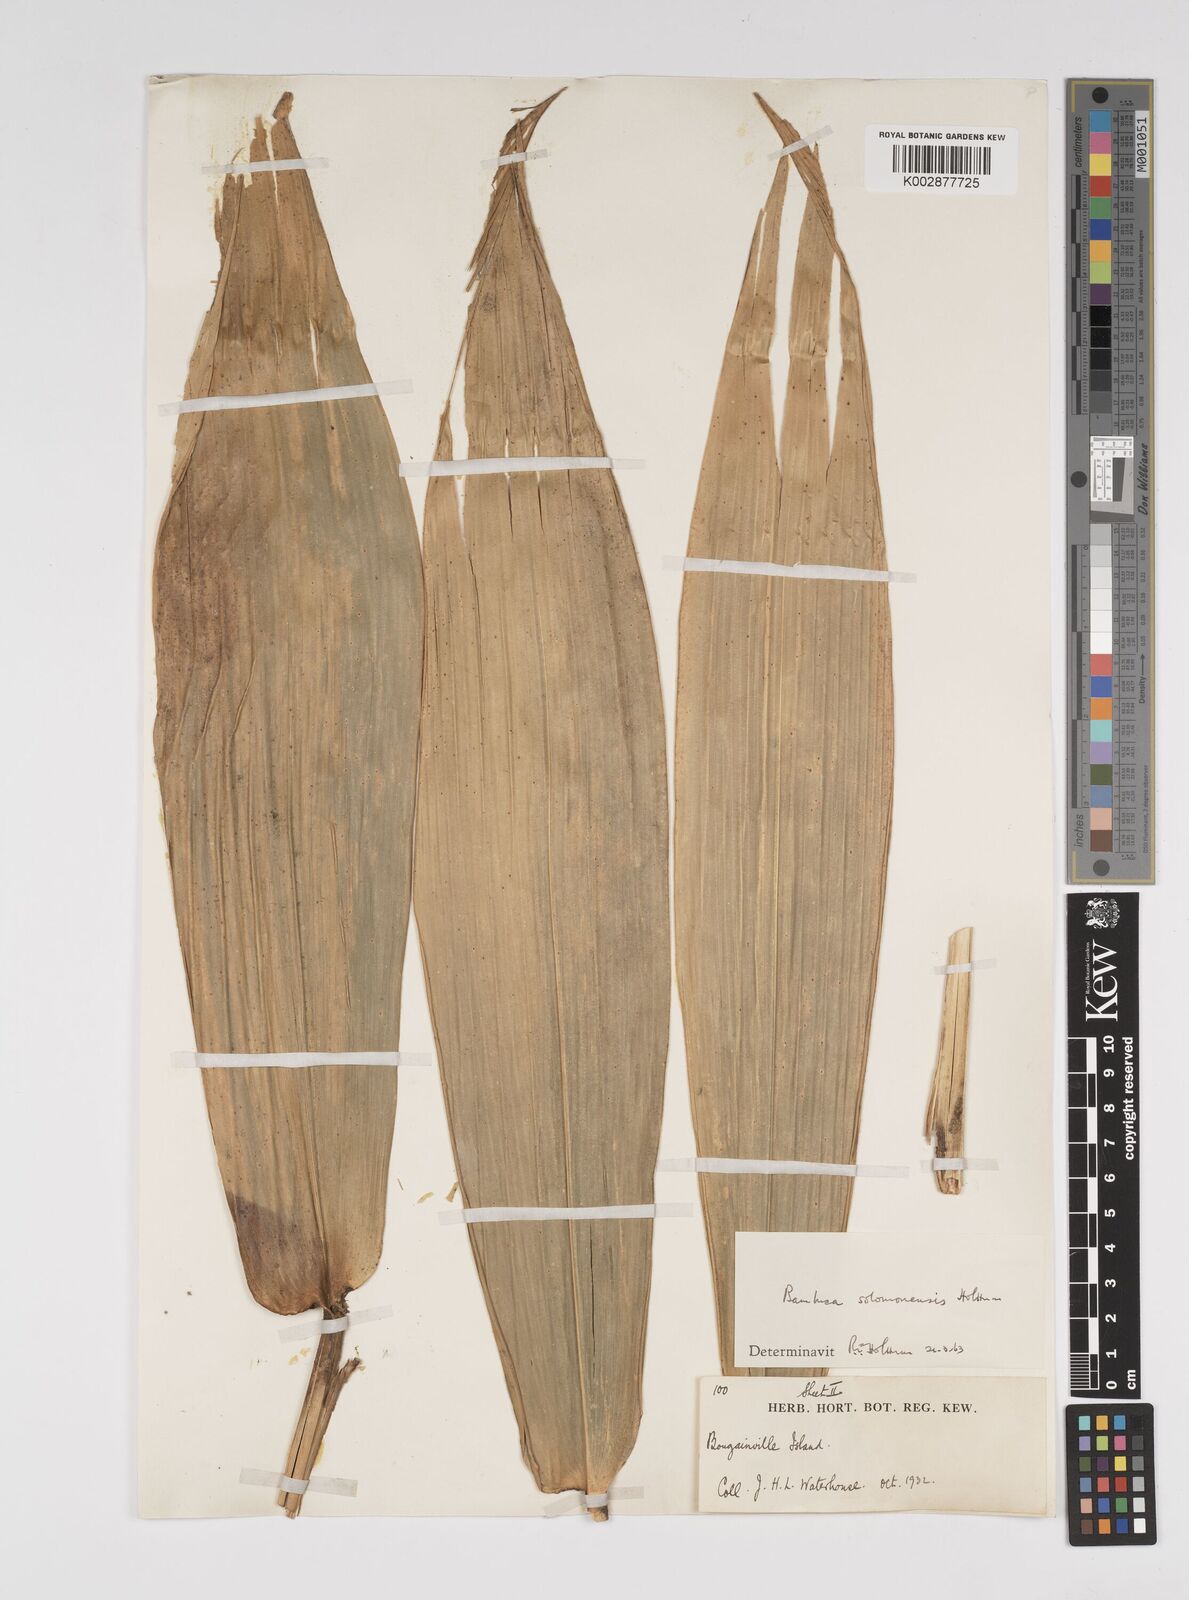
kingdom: Plantae
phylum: Tracheophyta
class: Liliopsida
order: Poales
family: Poaceae
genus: Bambusa
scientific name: Bambusa solomonensis
